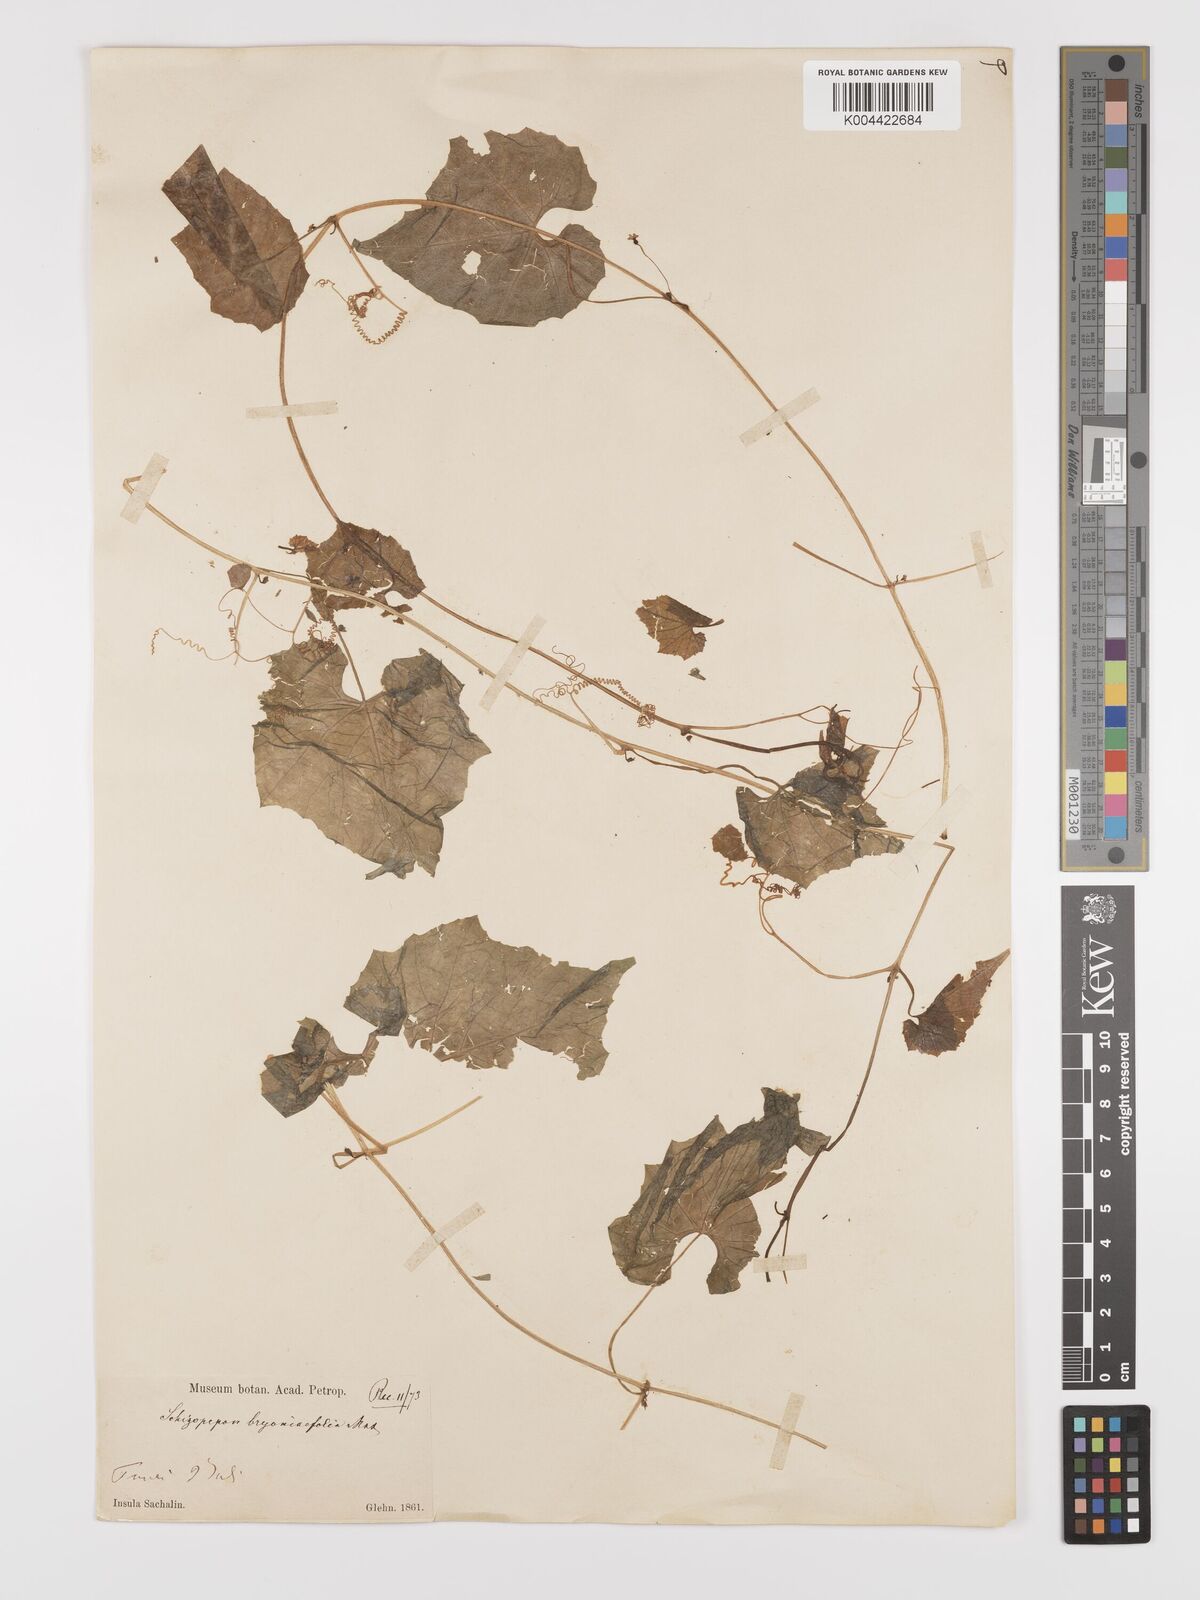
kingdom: Plantae
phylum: Tracheophyta
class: Magnoliopsida
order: Cucurbitales
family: Cucurbitaceae
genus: Schizopepon
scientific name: Schizopepon bryoniifolius
